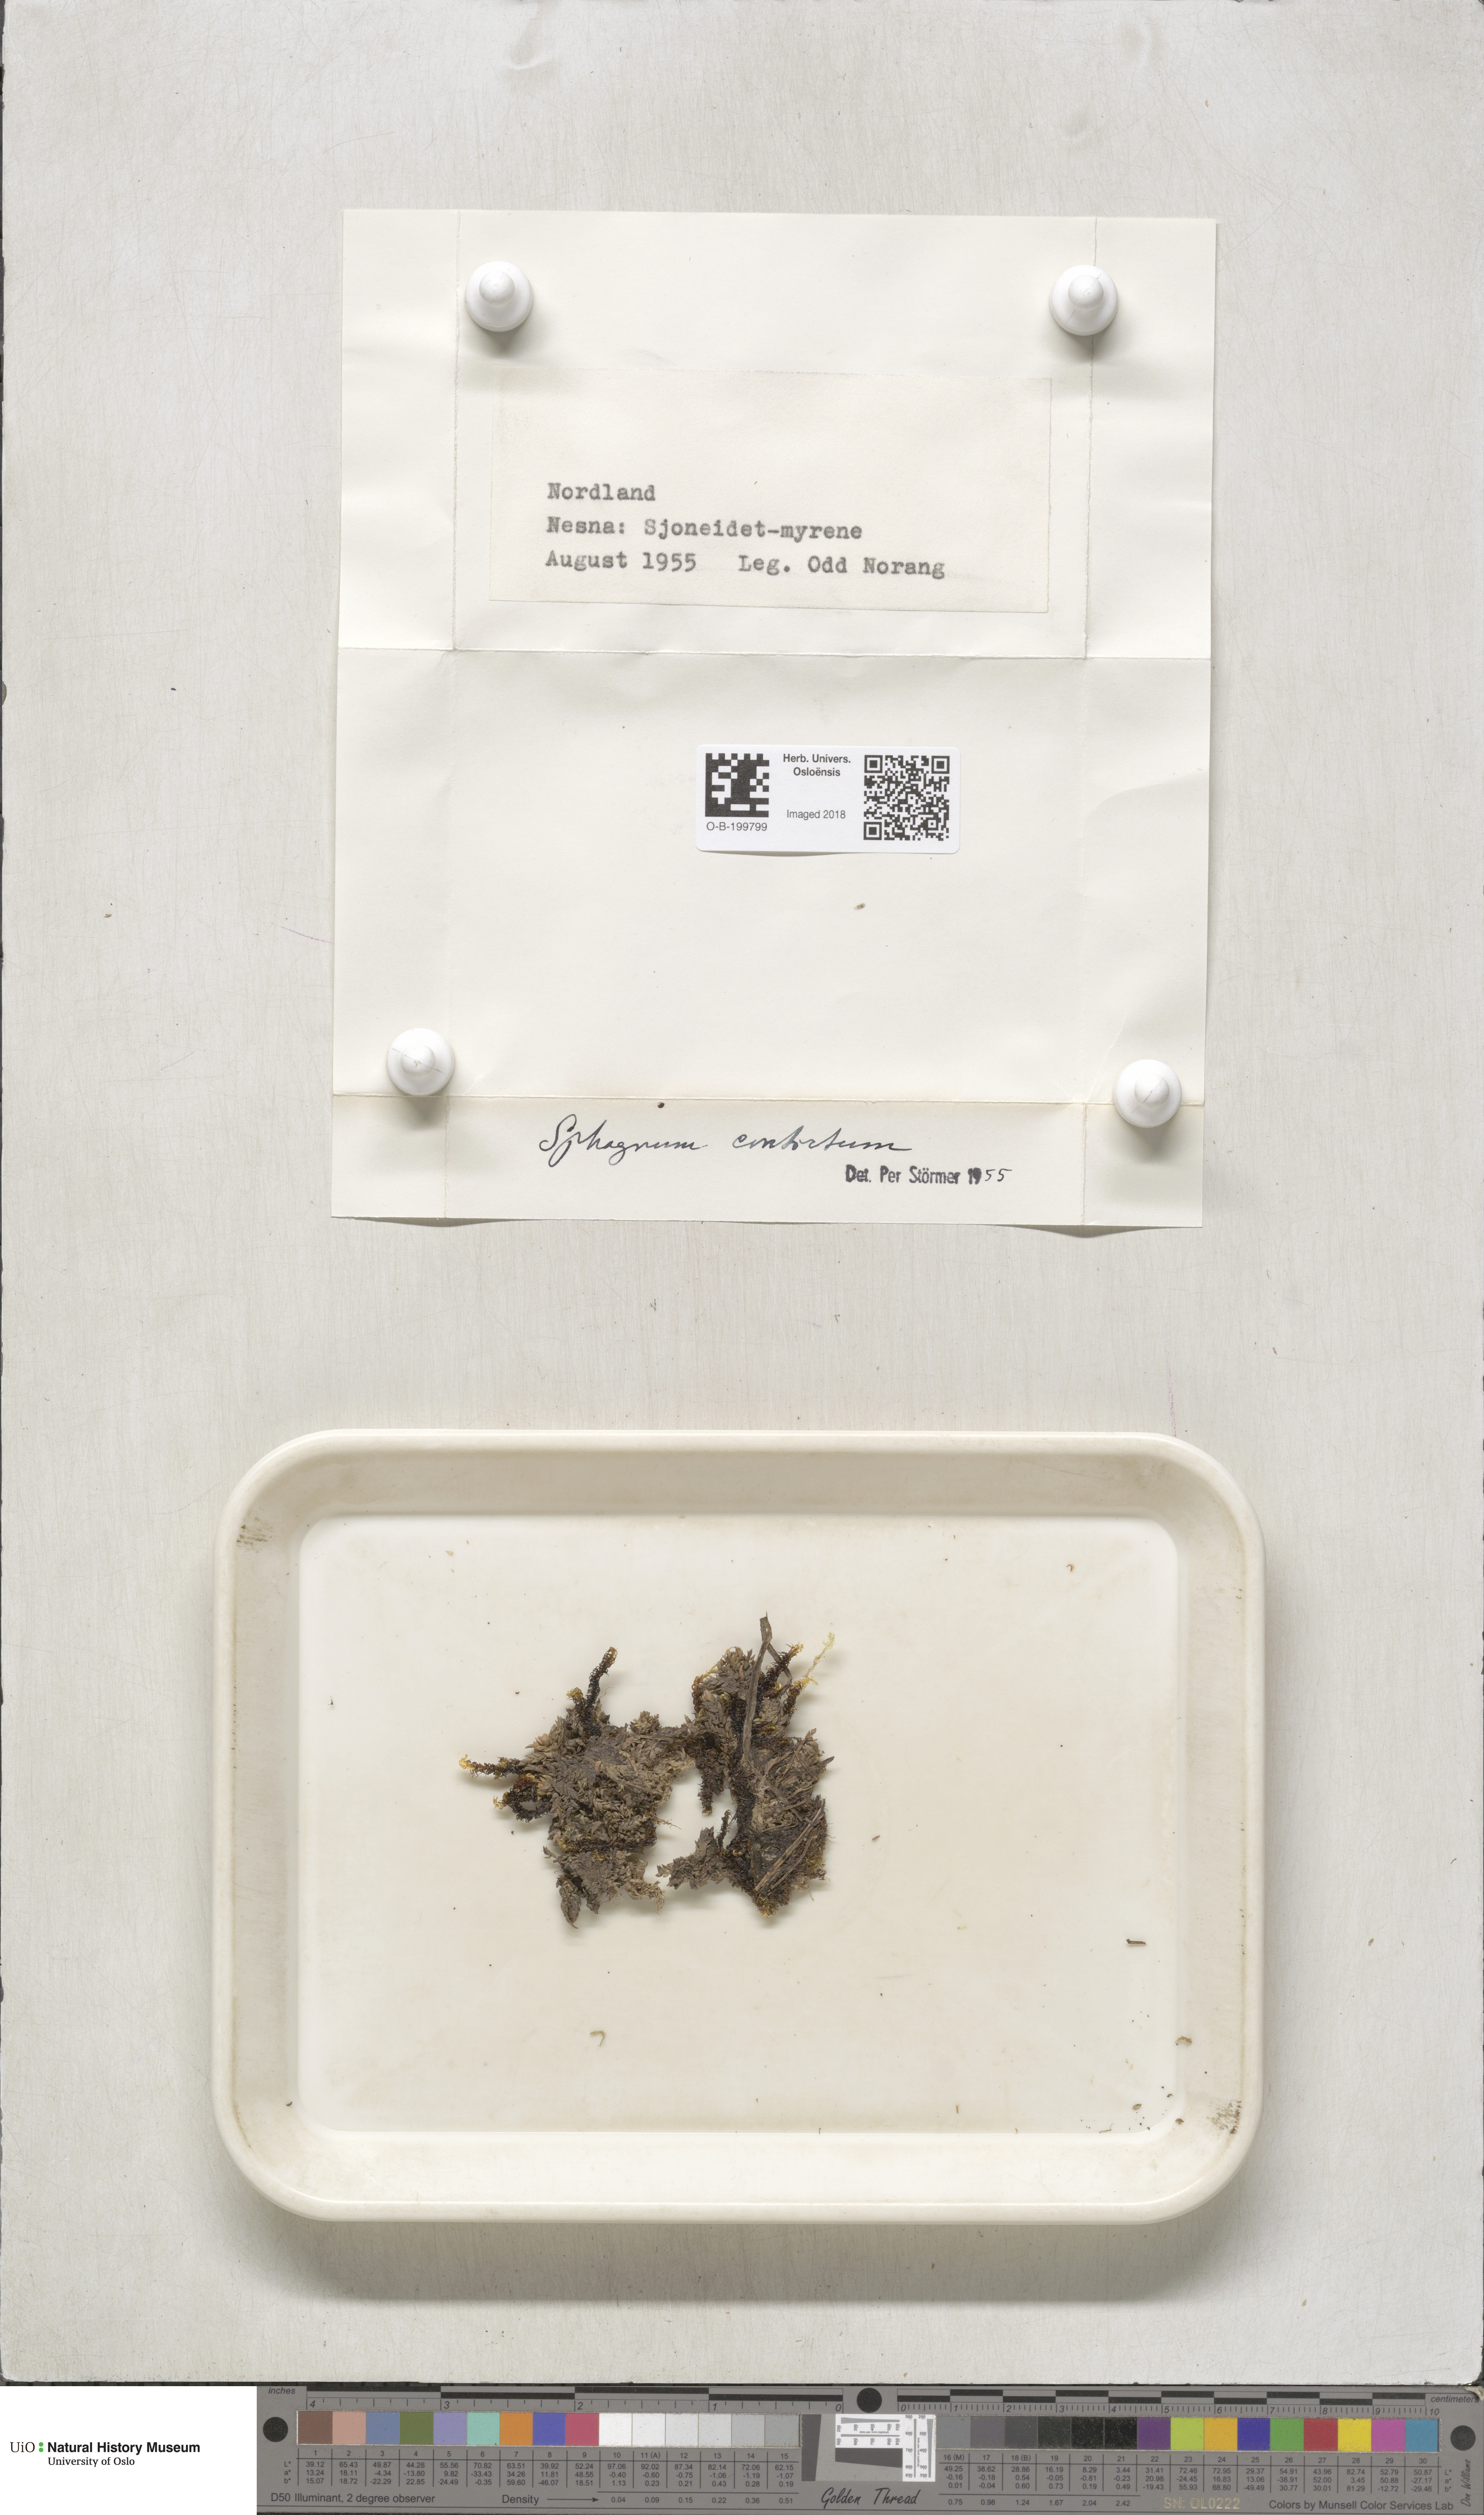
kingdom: Plantae
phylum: Bryophyta
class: Sphagnopsida
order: Sphagnales
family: Sphagnaceae
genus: Sphagnum
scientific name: Sphagnum contortum
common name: Twisted peat moss
